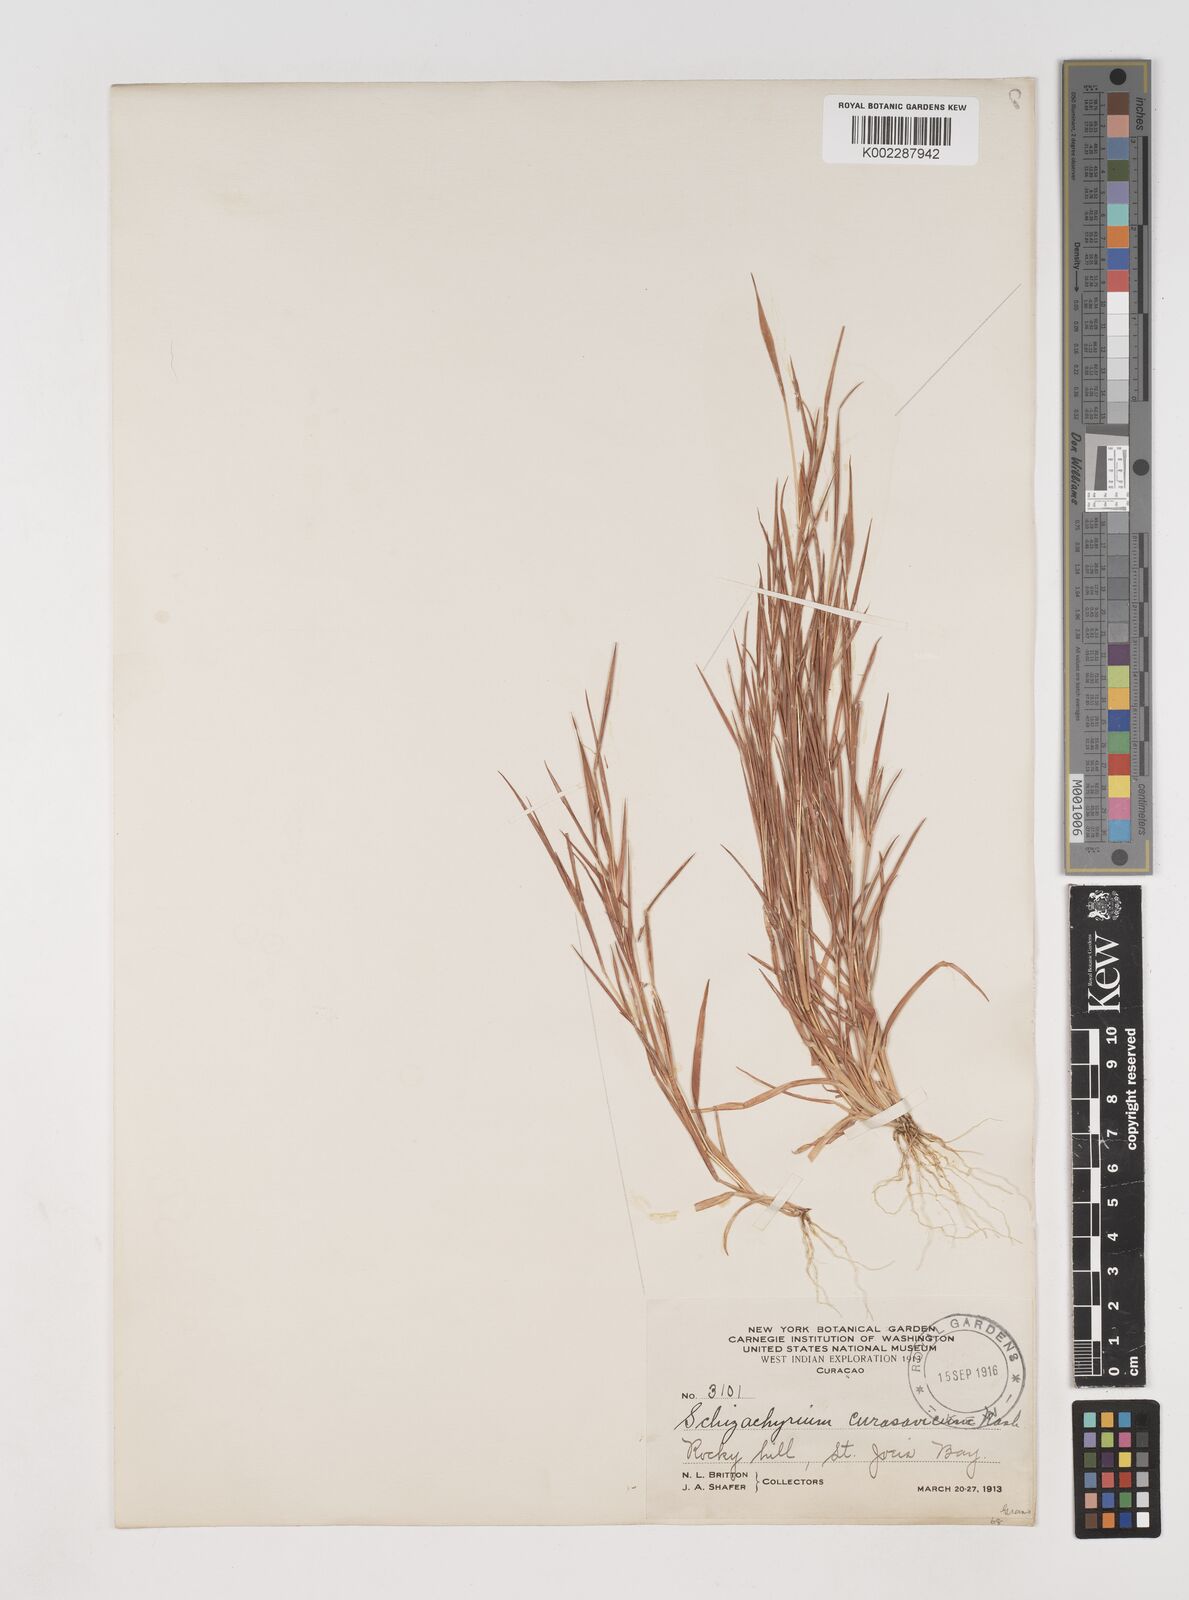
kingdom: Plantae
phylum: Tracheophyta
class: Liliopsida
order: Poales
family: Poaceae
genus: Schizachyrium
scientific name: Schizachyrium malacostachyum
